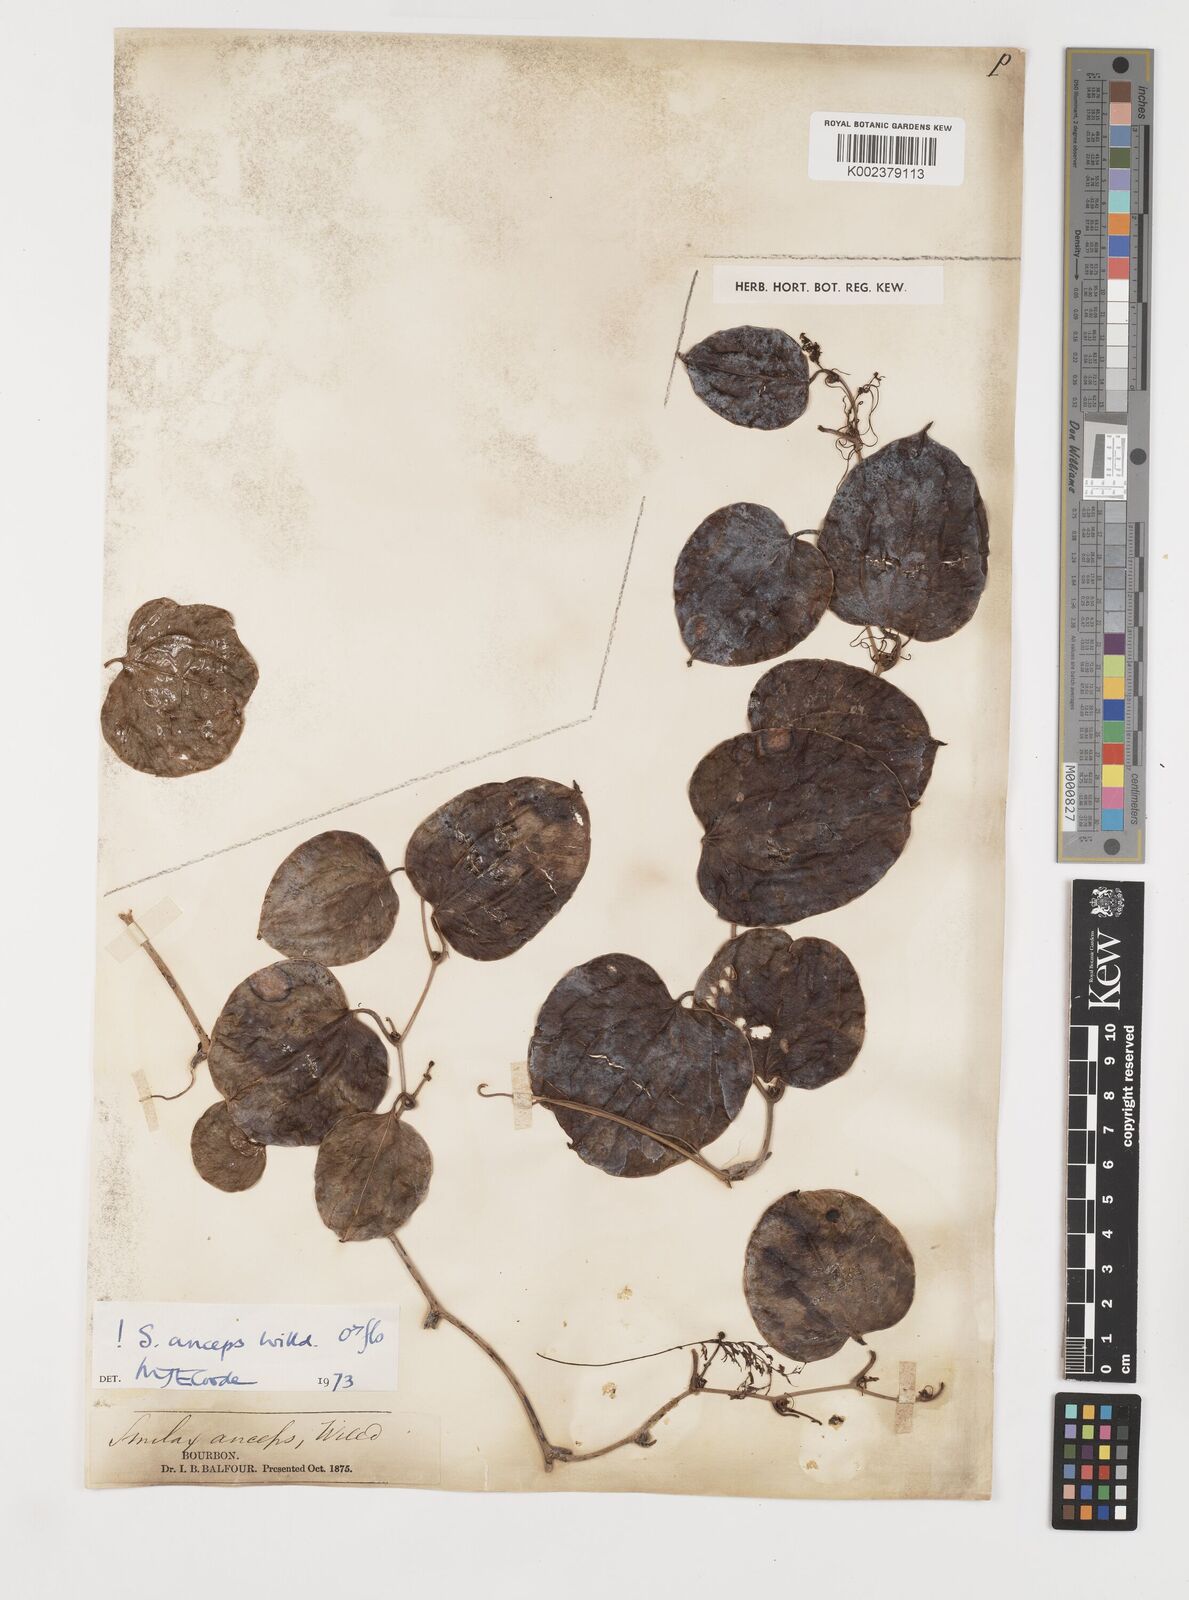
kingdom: Plantae
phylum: Tracheophyta
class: Liliopsida
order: Liliales
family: Smilacaceae
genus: Smilax
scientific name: Smilax anceps
